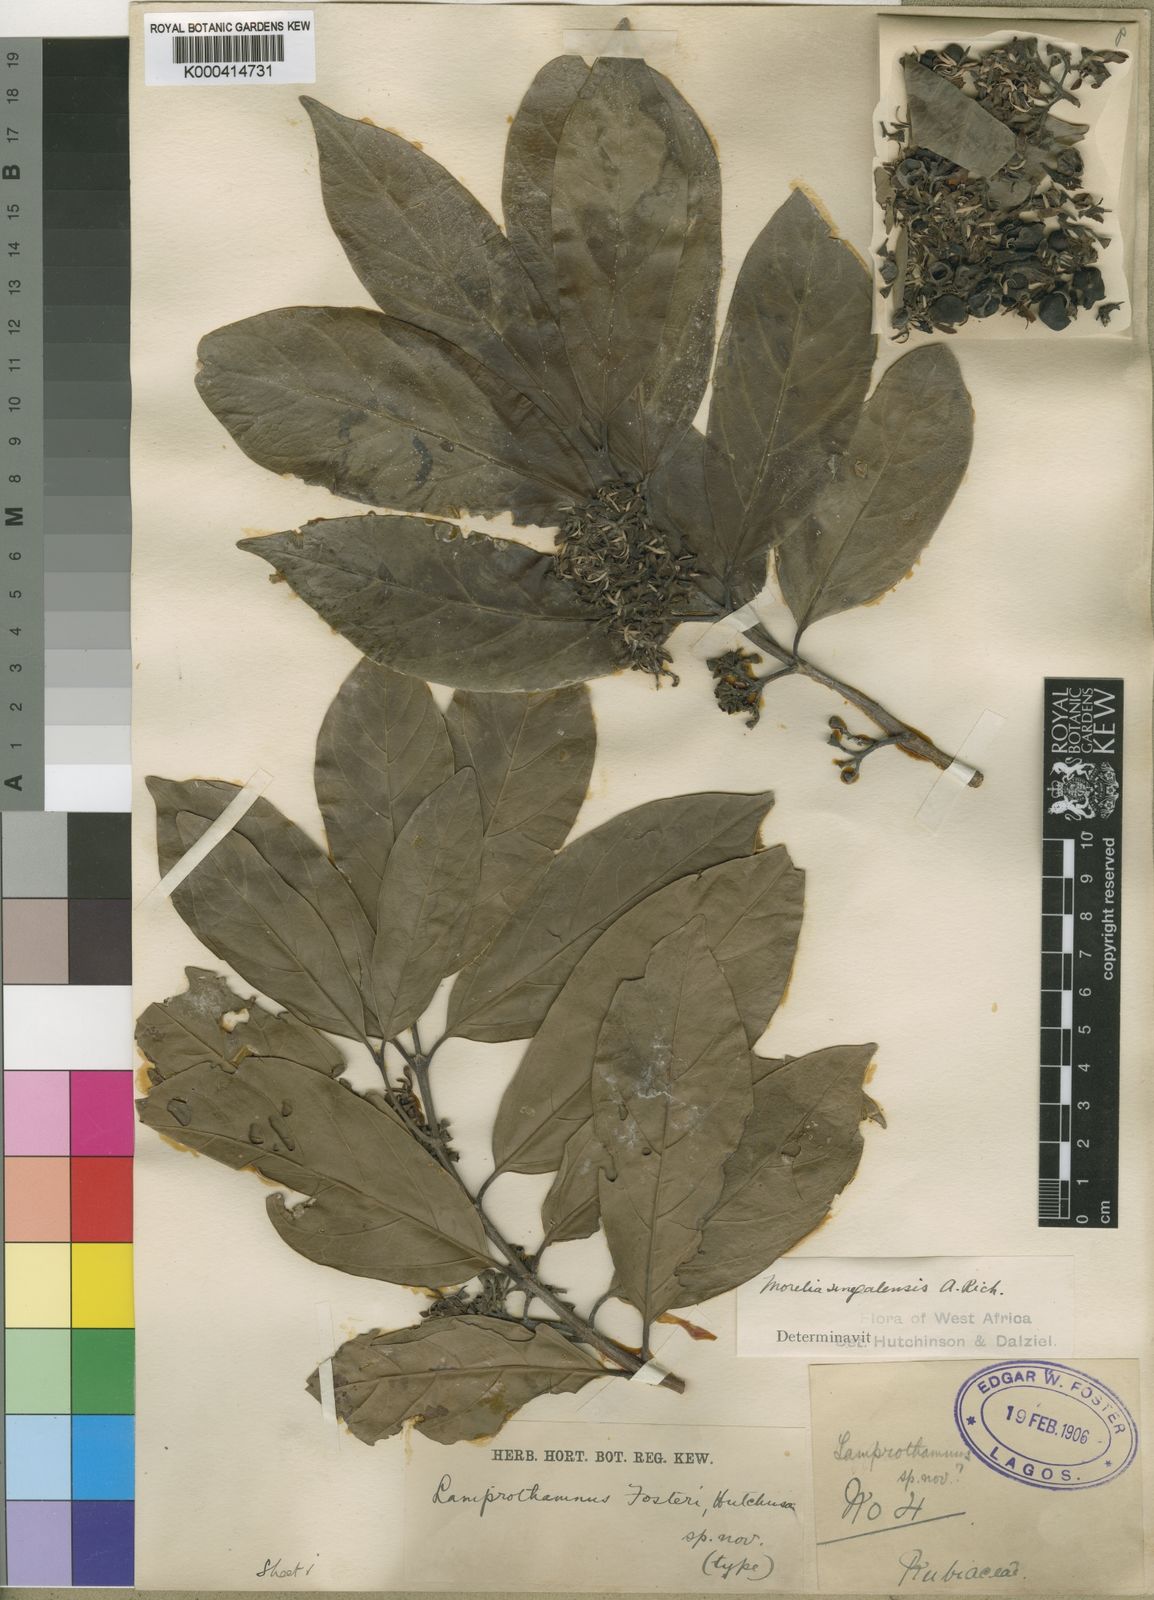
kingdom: Plantae
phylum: Tracheophyta
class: Magnoliopsida
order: Gentianales
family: Rubiaceae
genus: Morelia
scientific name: Morelia senegalensis
